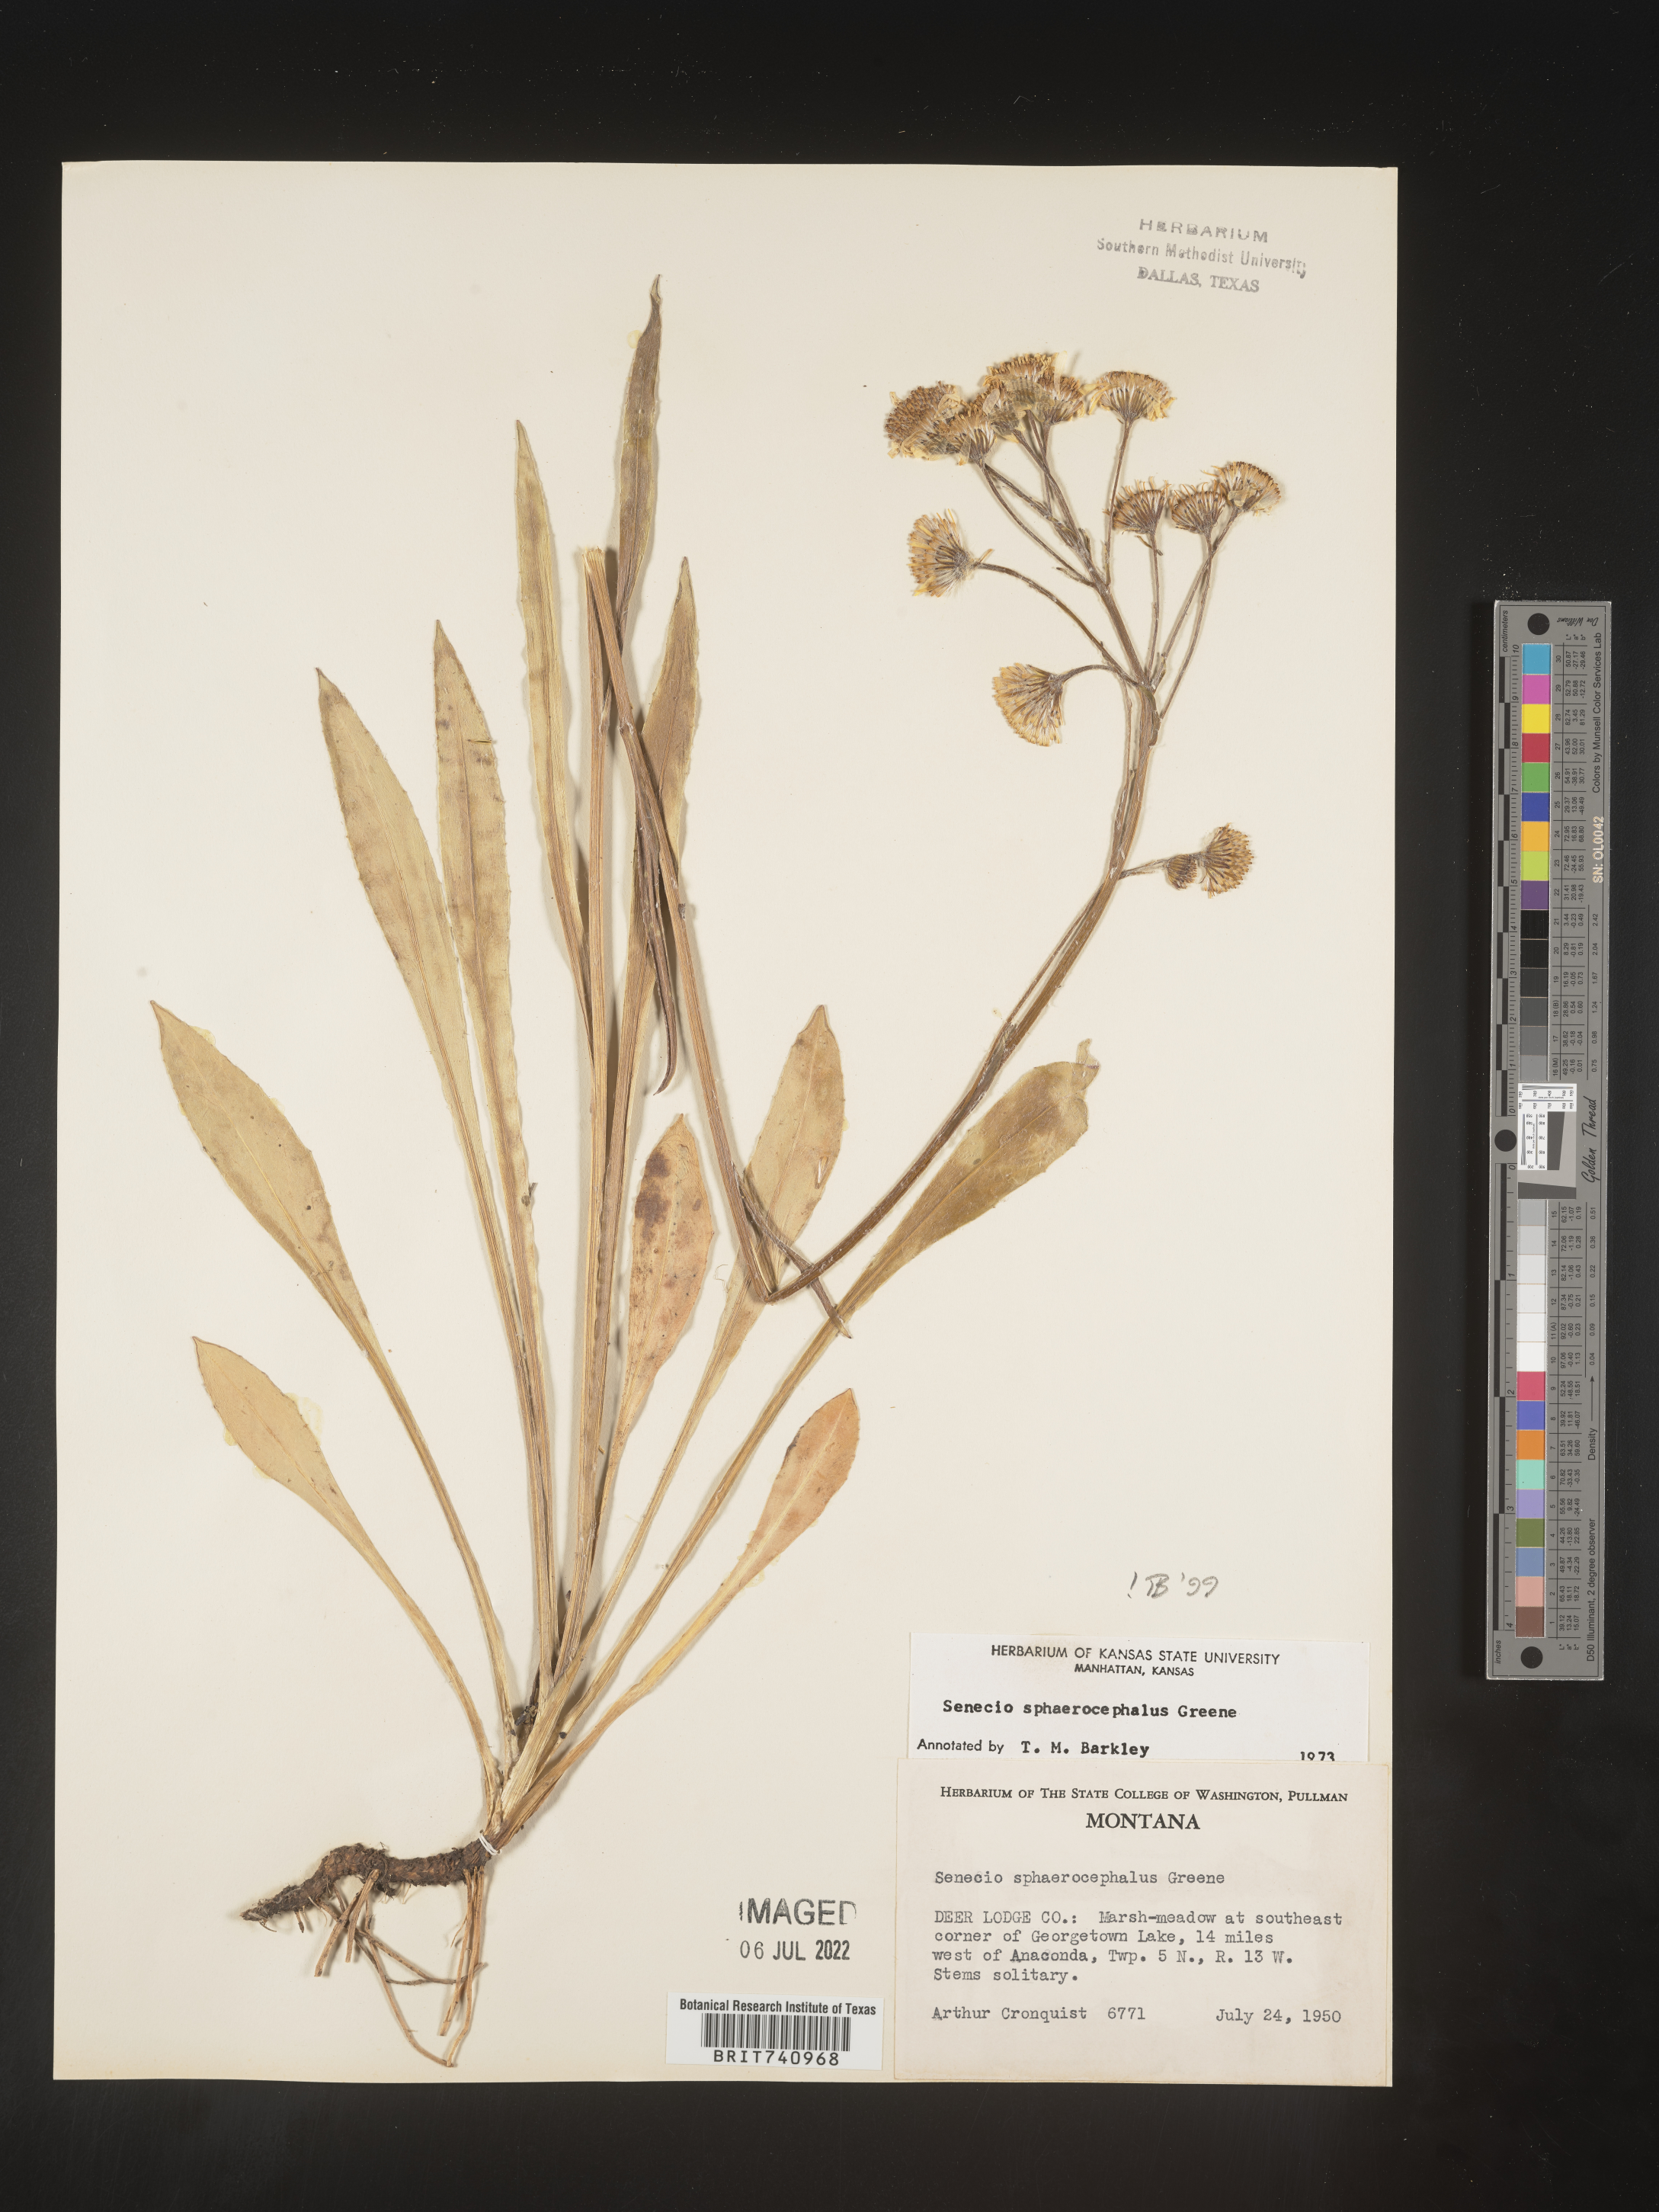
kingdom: Plantae
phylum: Tracheophyta
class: Magnoliopsida
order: Asterales
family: Asteraceae
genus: Senecio
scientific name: Senecio sphaerocephalus
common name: Mountain-marsh butterweed
